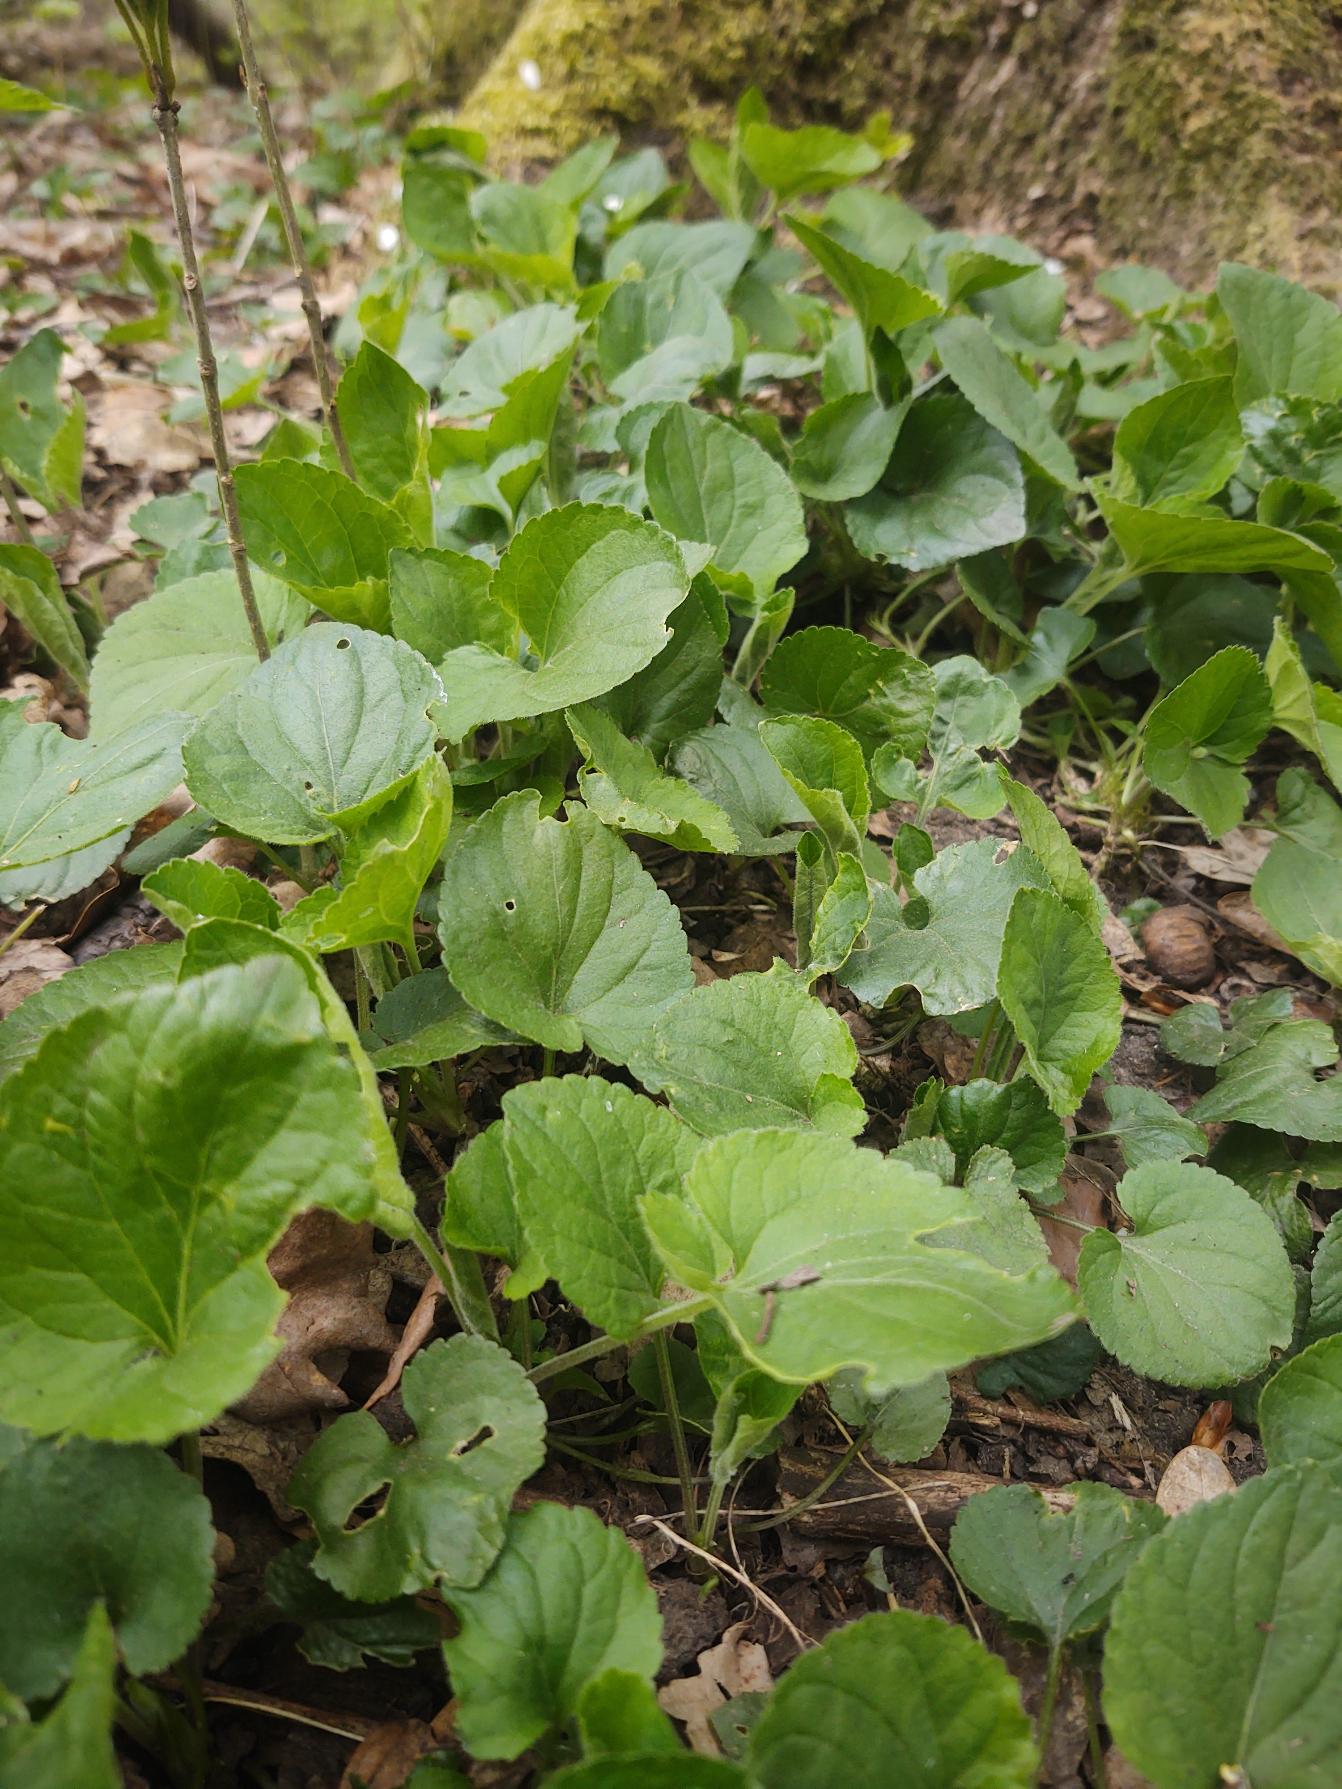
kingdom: Plantae
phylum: Tracheophyta
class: Magnoliopsida
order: Malpighiales
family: Violaceae
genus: Viola
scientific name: Viola odorata
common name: Marts-viol
